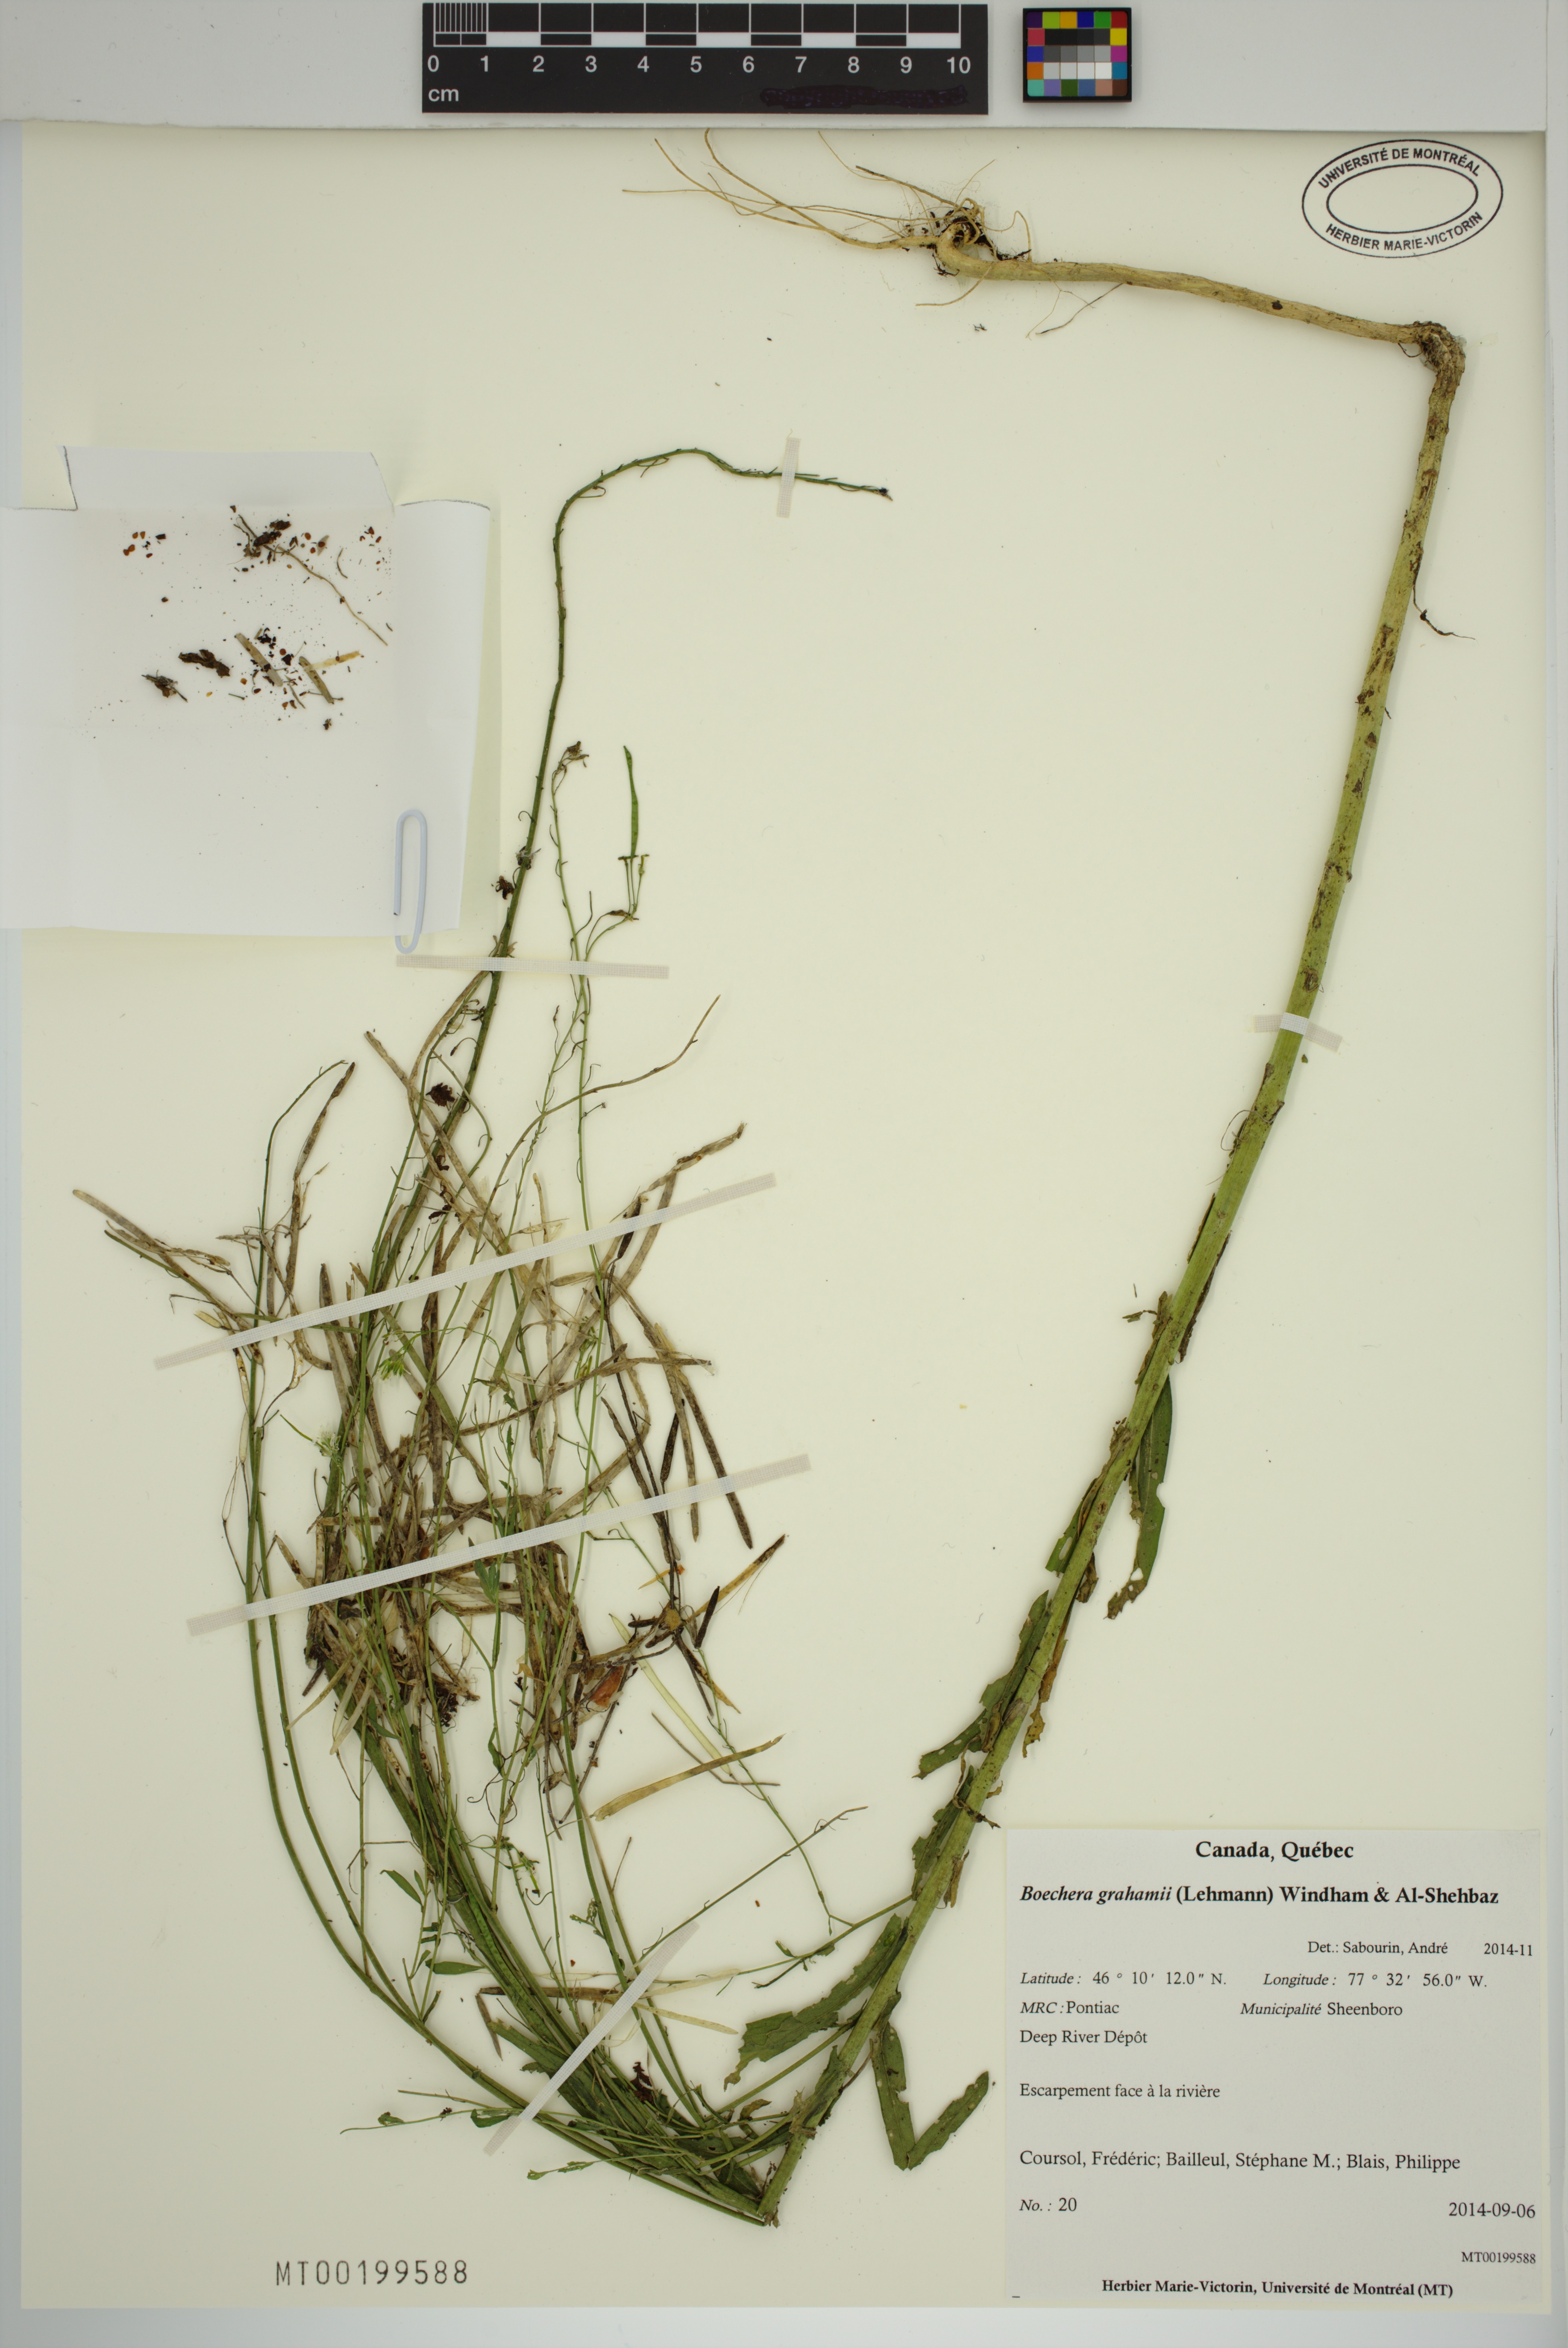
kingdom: Plantae
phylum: Tracheophyta
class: Magnoliopsida
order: Brassicales
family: Brassicaceae
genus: Boechera
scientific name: Boechera
